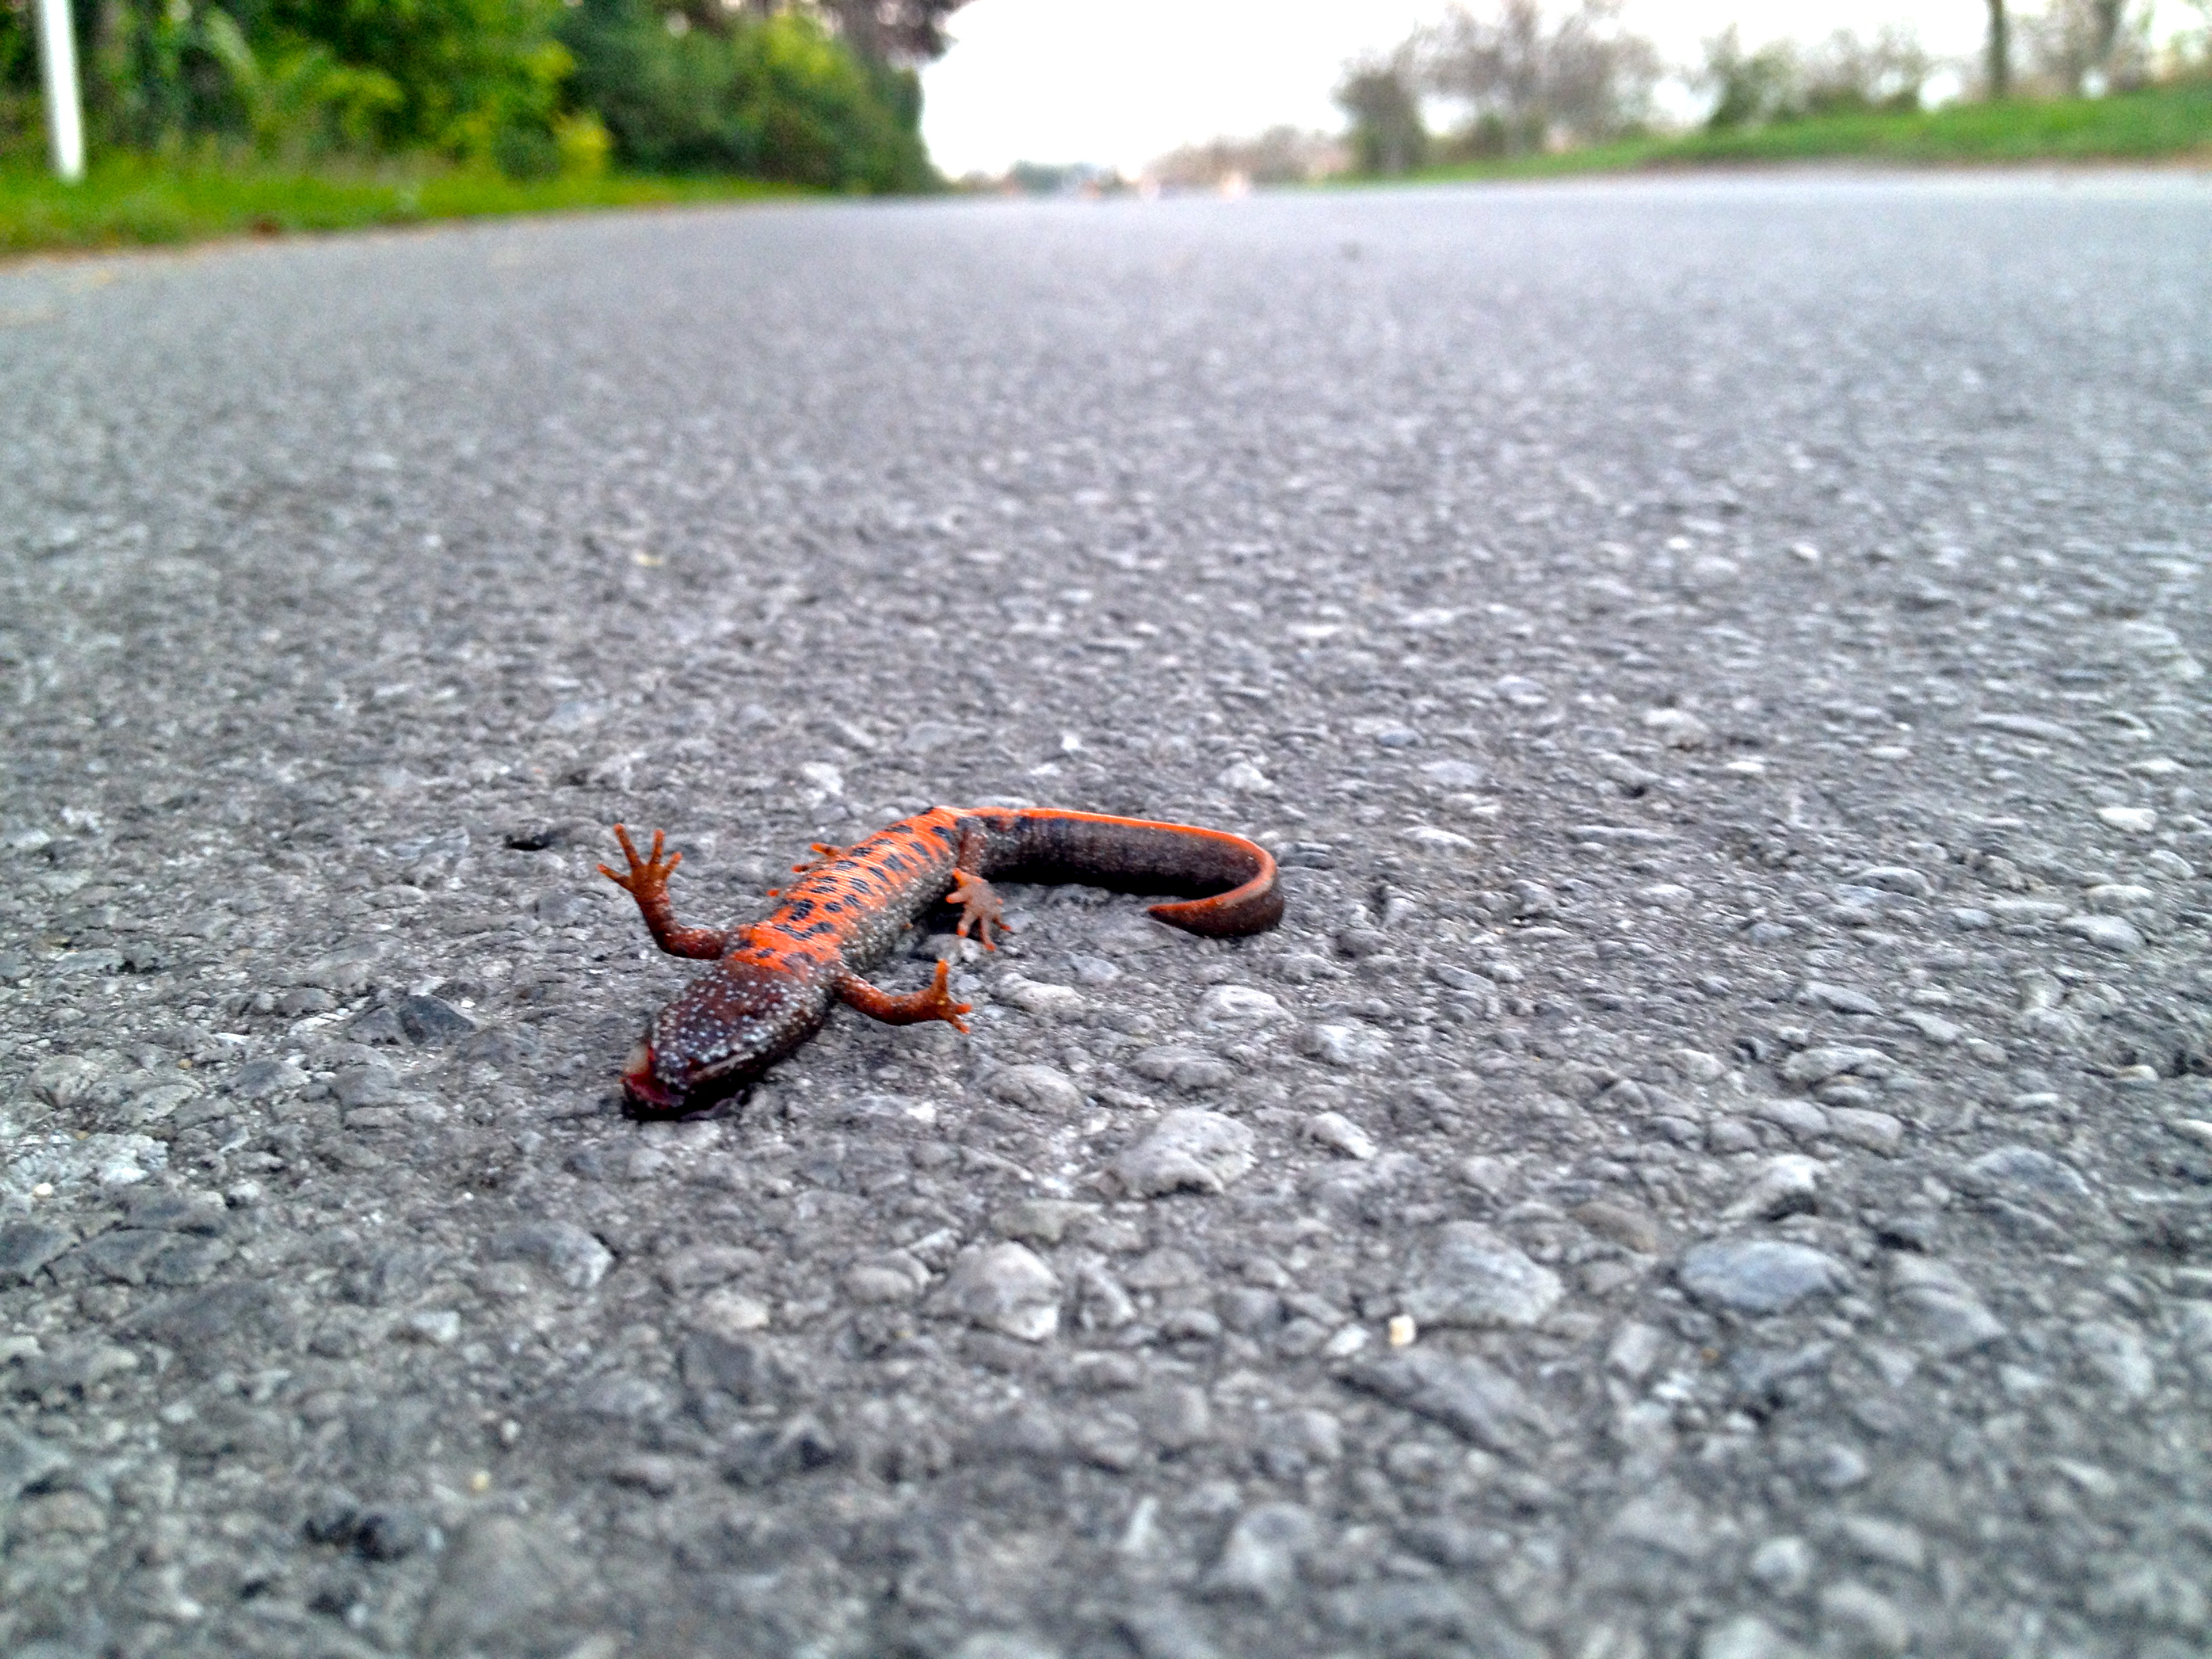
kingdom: Animalia
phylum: Chordata
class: Amphibia
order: Caudata
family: Salamandridae
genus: Triturus
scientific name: Triturus dobrogicus
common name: Danube crested newt
